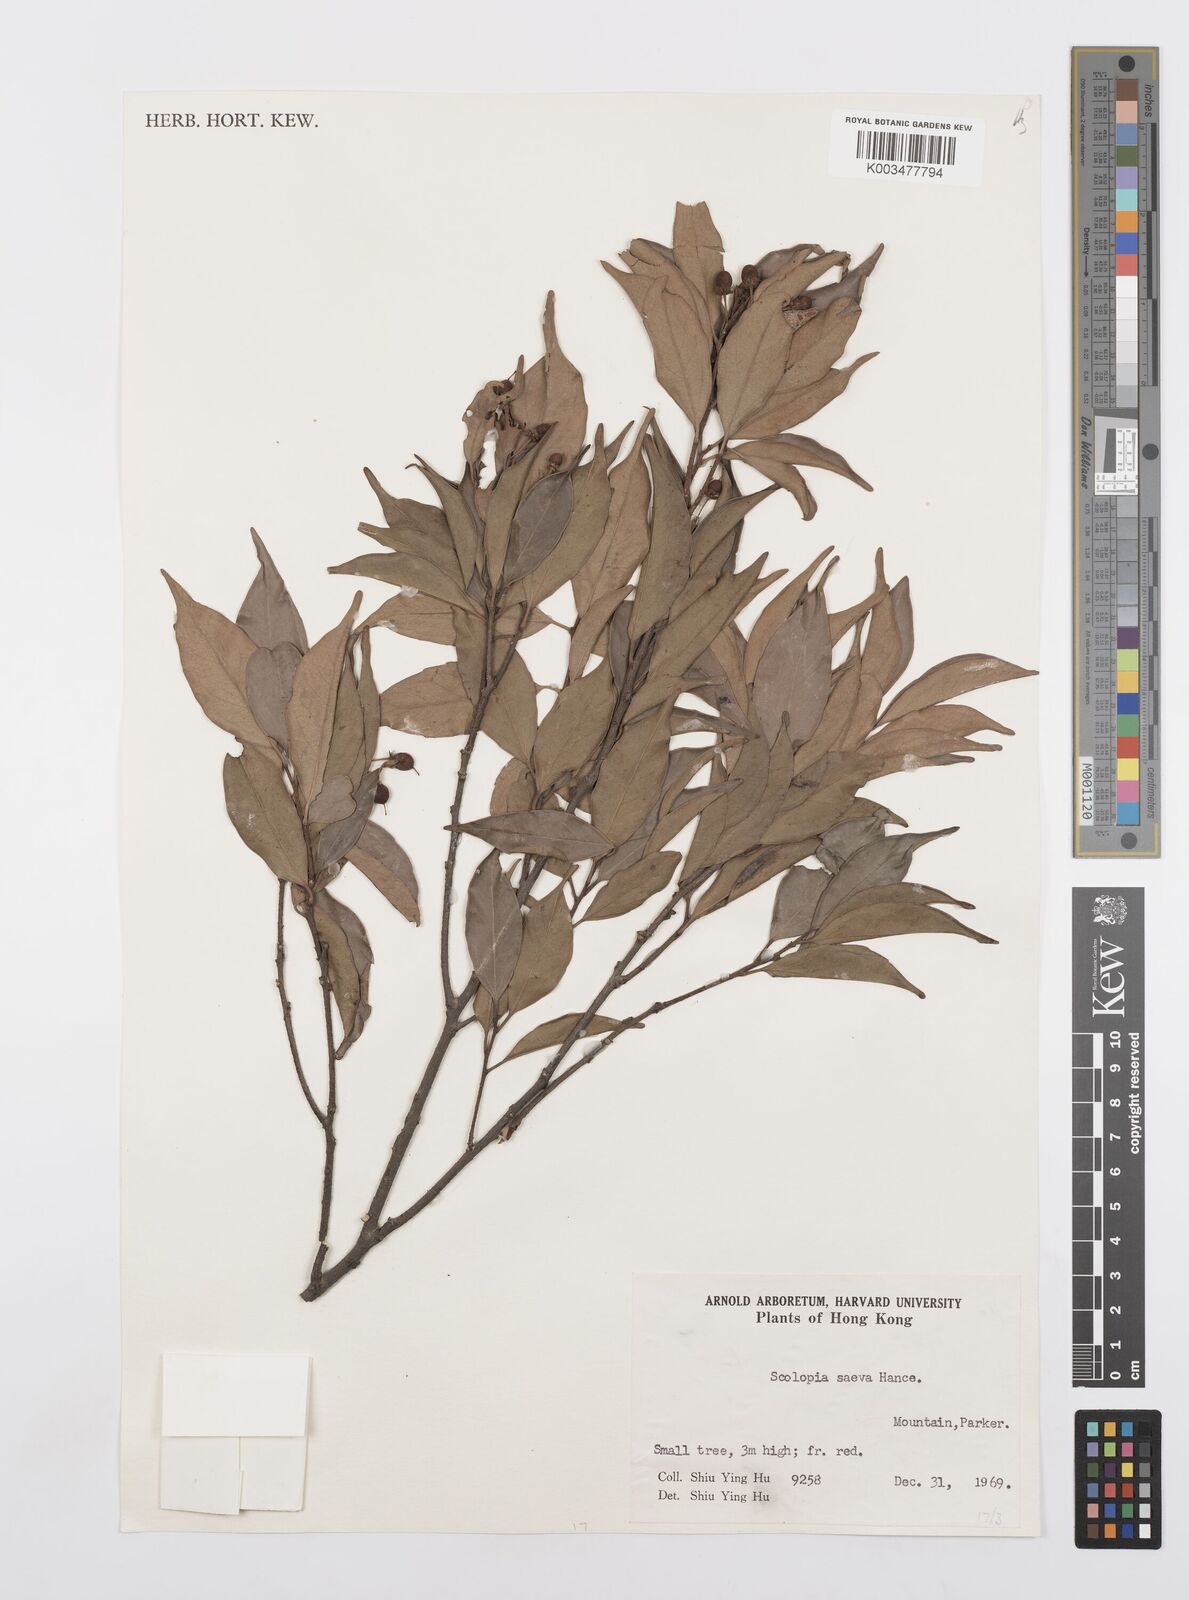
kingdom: Plantae
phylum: Tracheophyta
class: Magnoliopsida
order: Malpighiales
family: Salicaceae
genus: Scolopia
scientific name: Scolopia saeva
